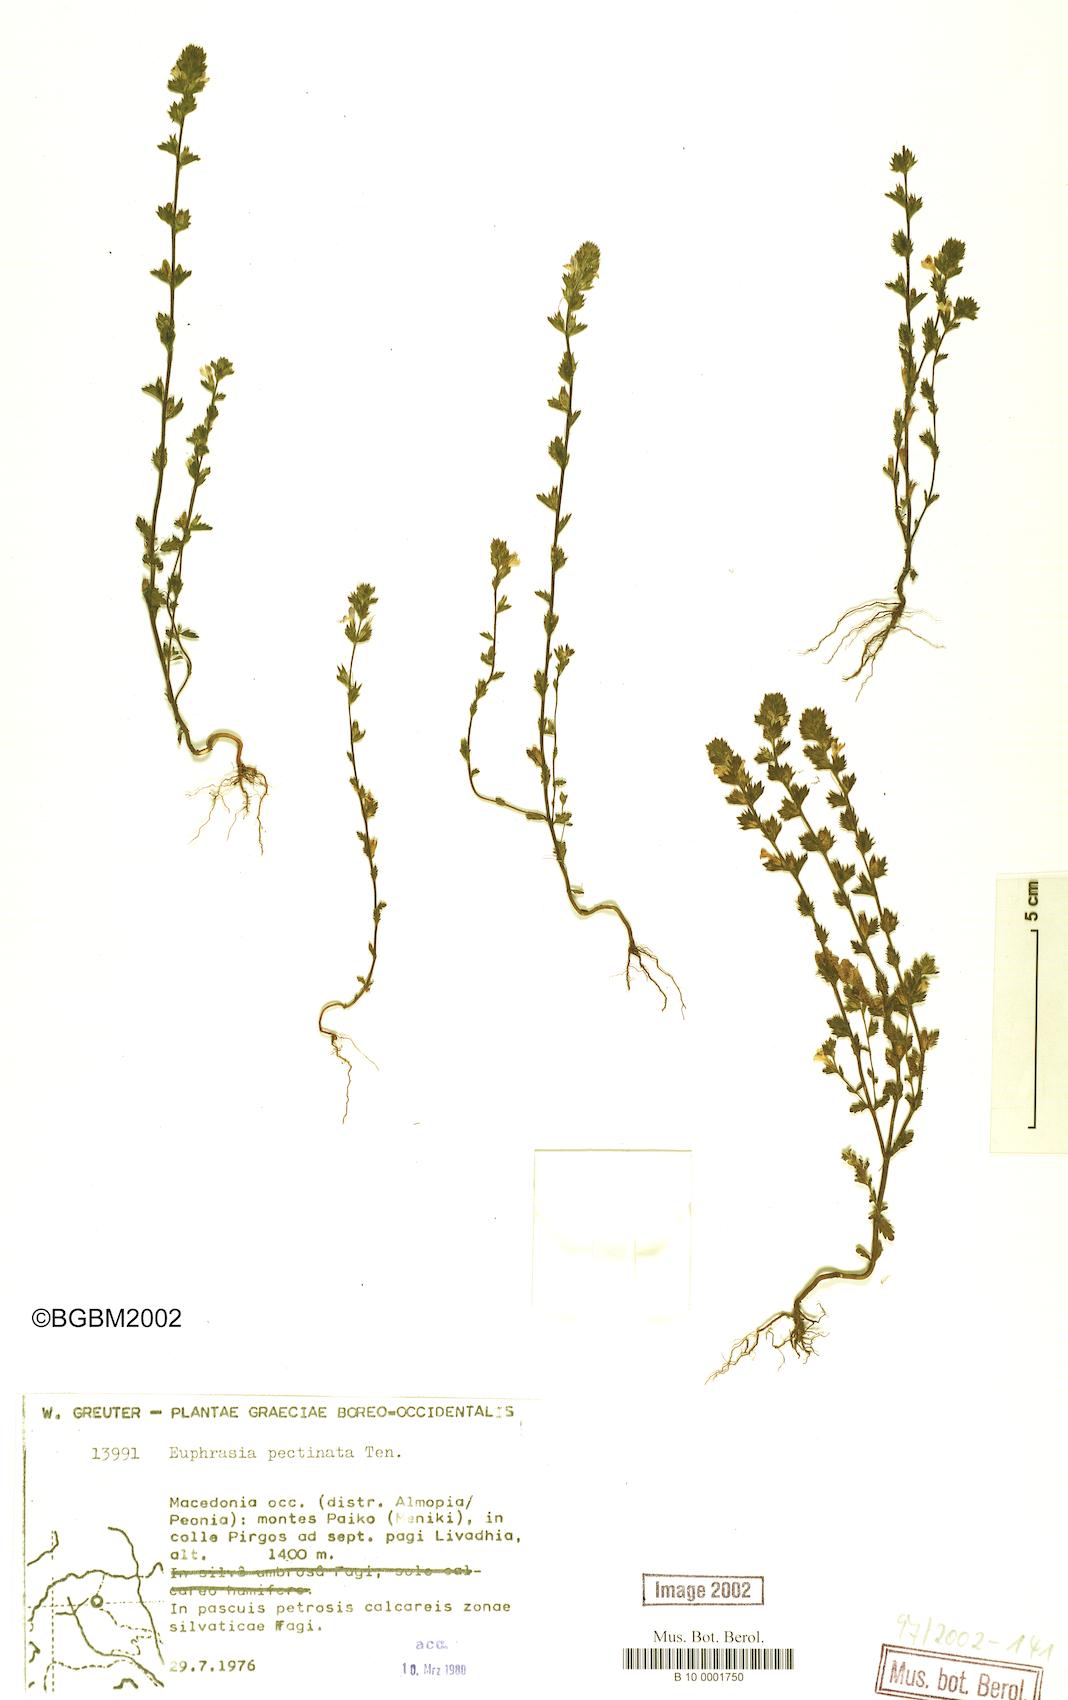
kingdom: Plantae
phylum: Tracheophyta
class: Magnoliopsida
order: Lamiales
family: Orobanchaceae
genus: Euphrasia
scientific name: Euphrasia pectinata
